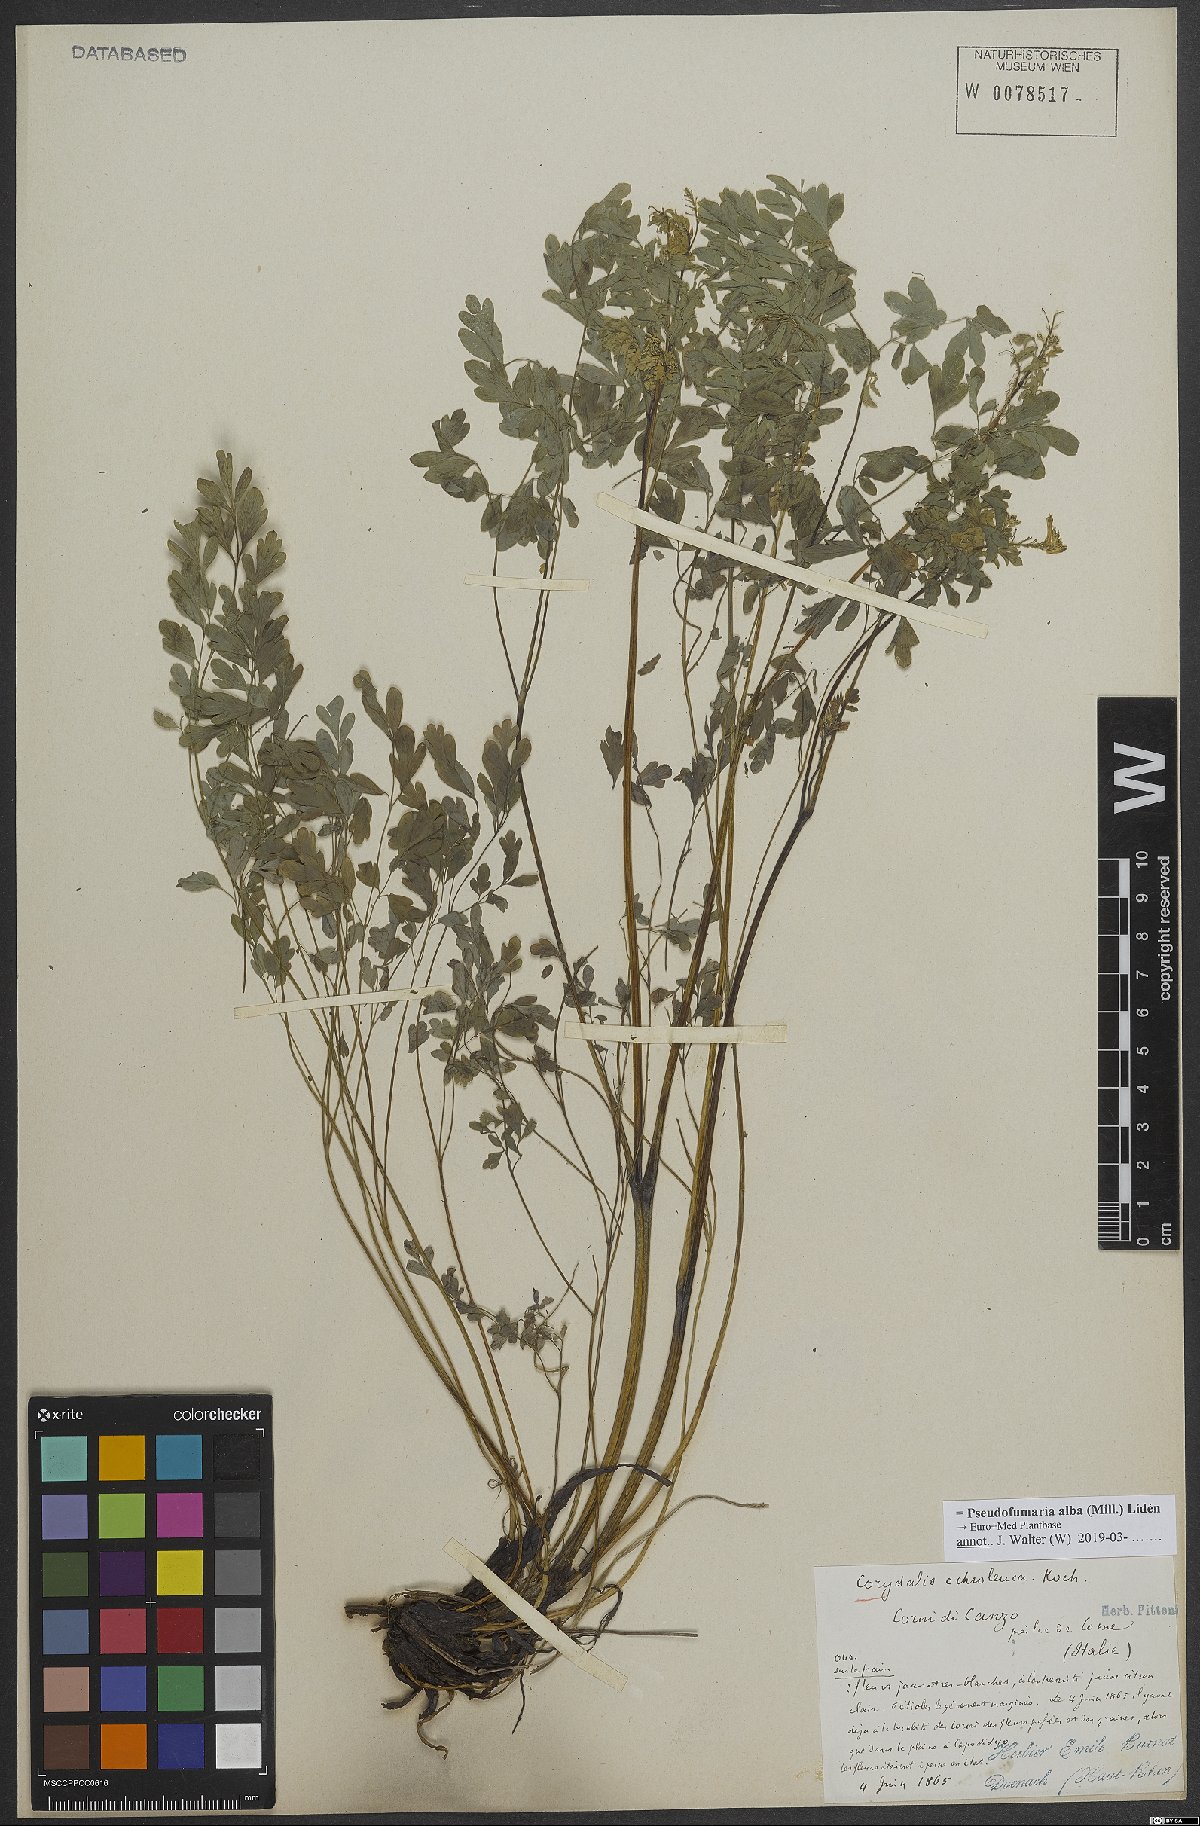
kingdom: Plantae
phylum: Tracheophyta
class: Magnoliopsida
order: Ranunculales
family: Papaveraceae
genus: Pseudofumaria
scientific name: Pseudofumaria alba
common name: Pale corydalis
